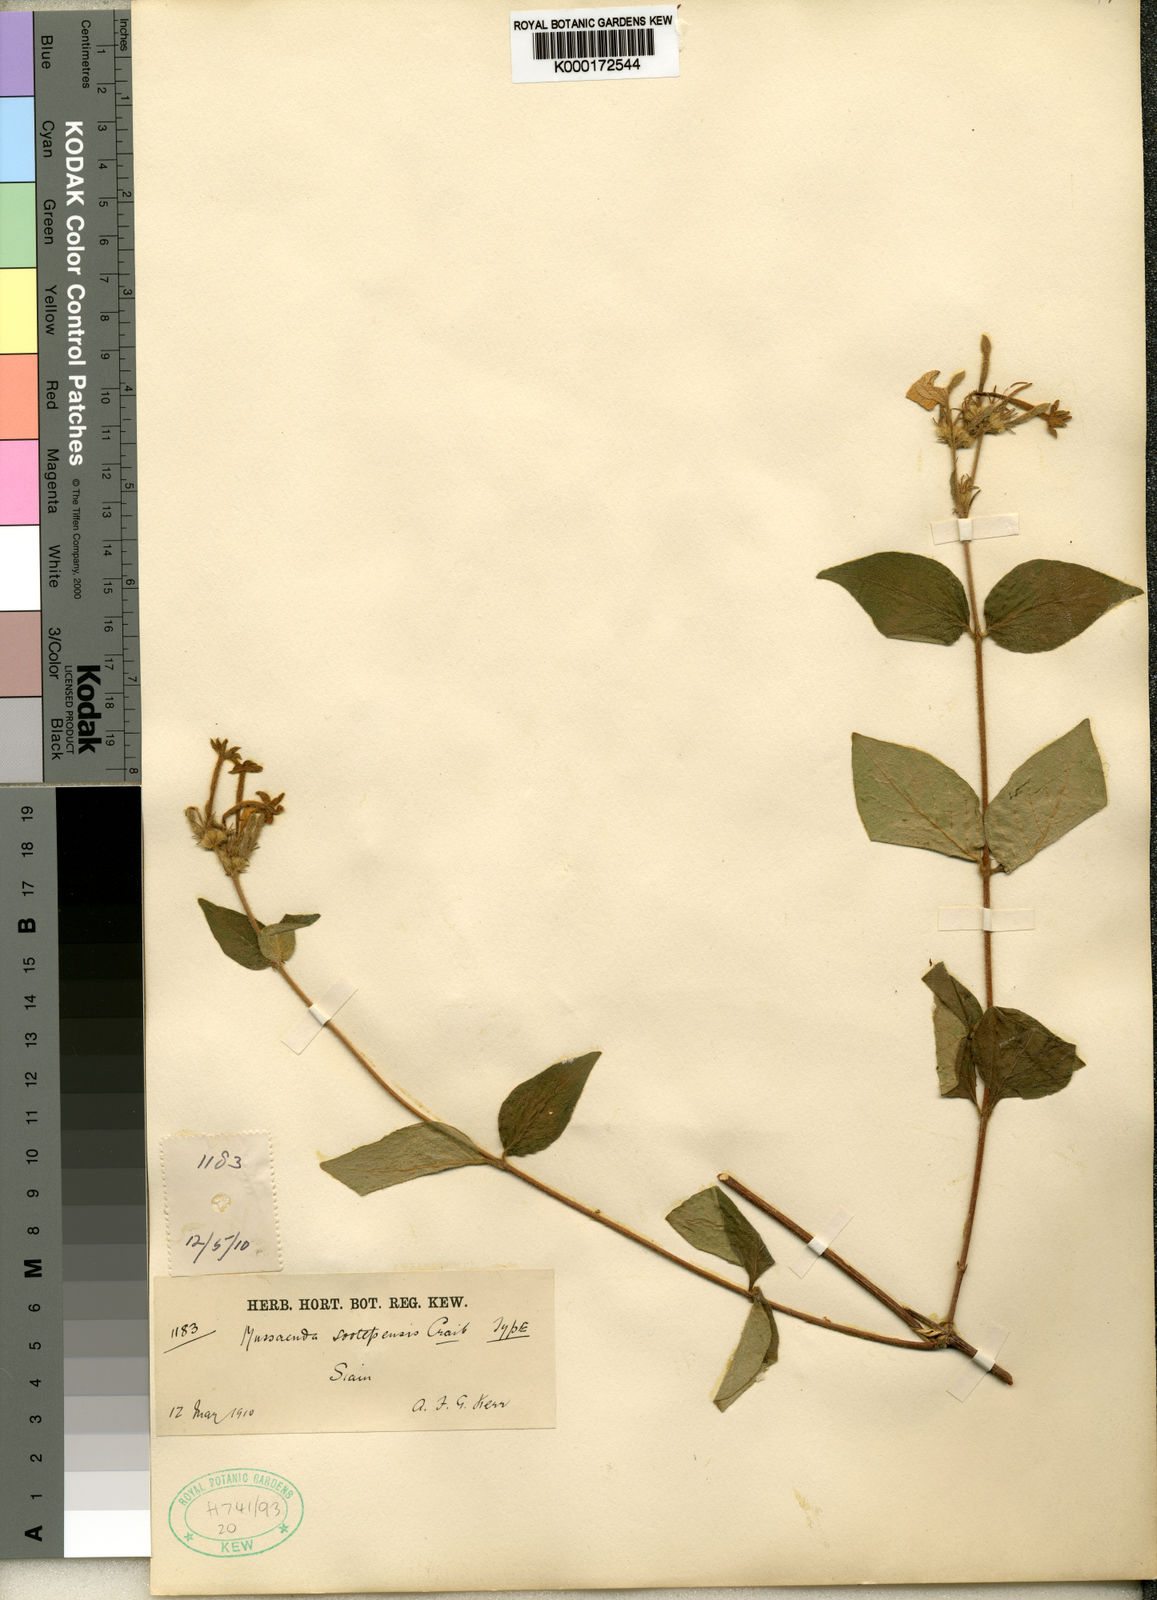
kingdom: Plantae
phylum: Tracheophyta
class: Magnoliopsida
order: Gentianales
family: Rubiaceae
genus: Mussaenda
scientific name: Mussaenda parva
